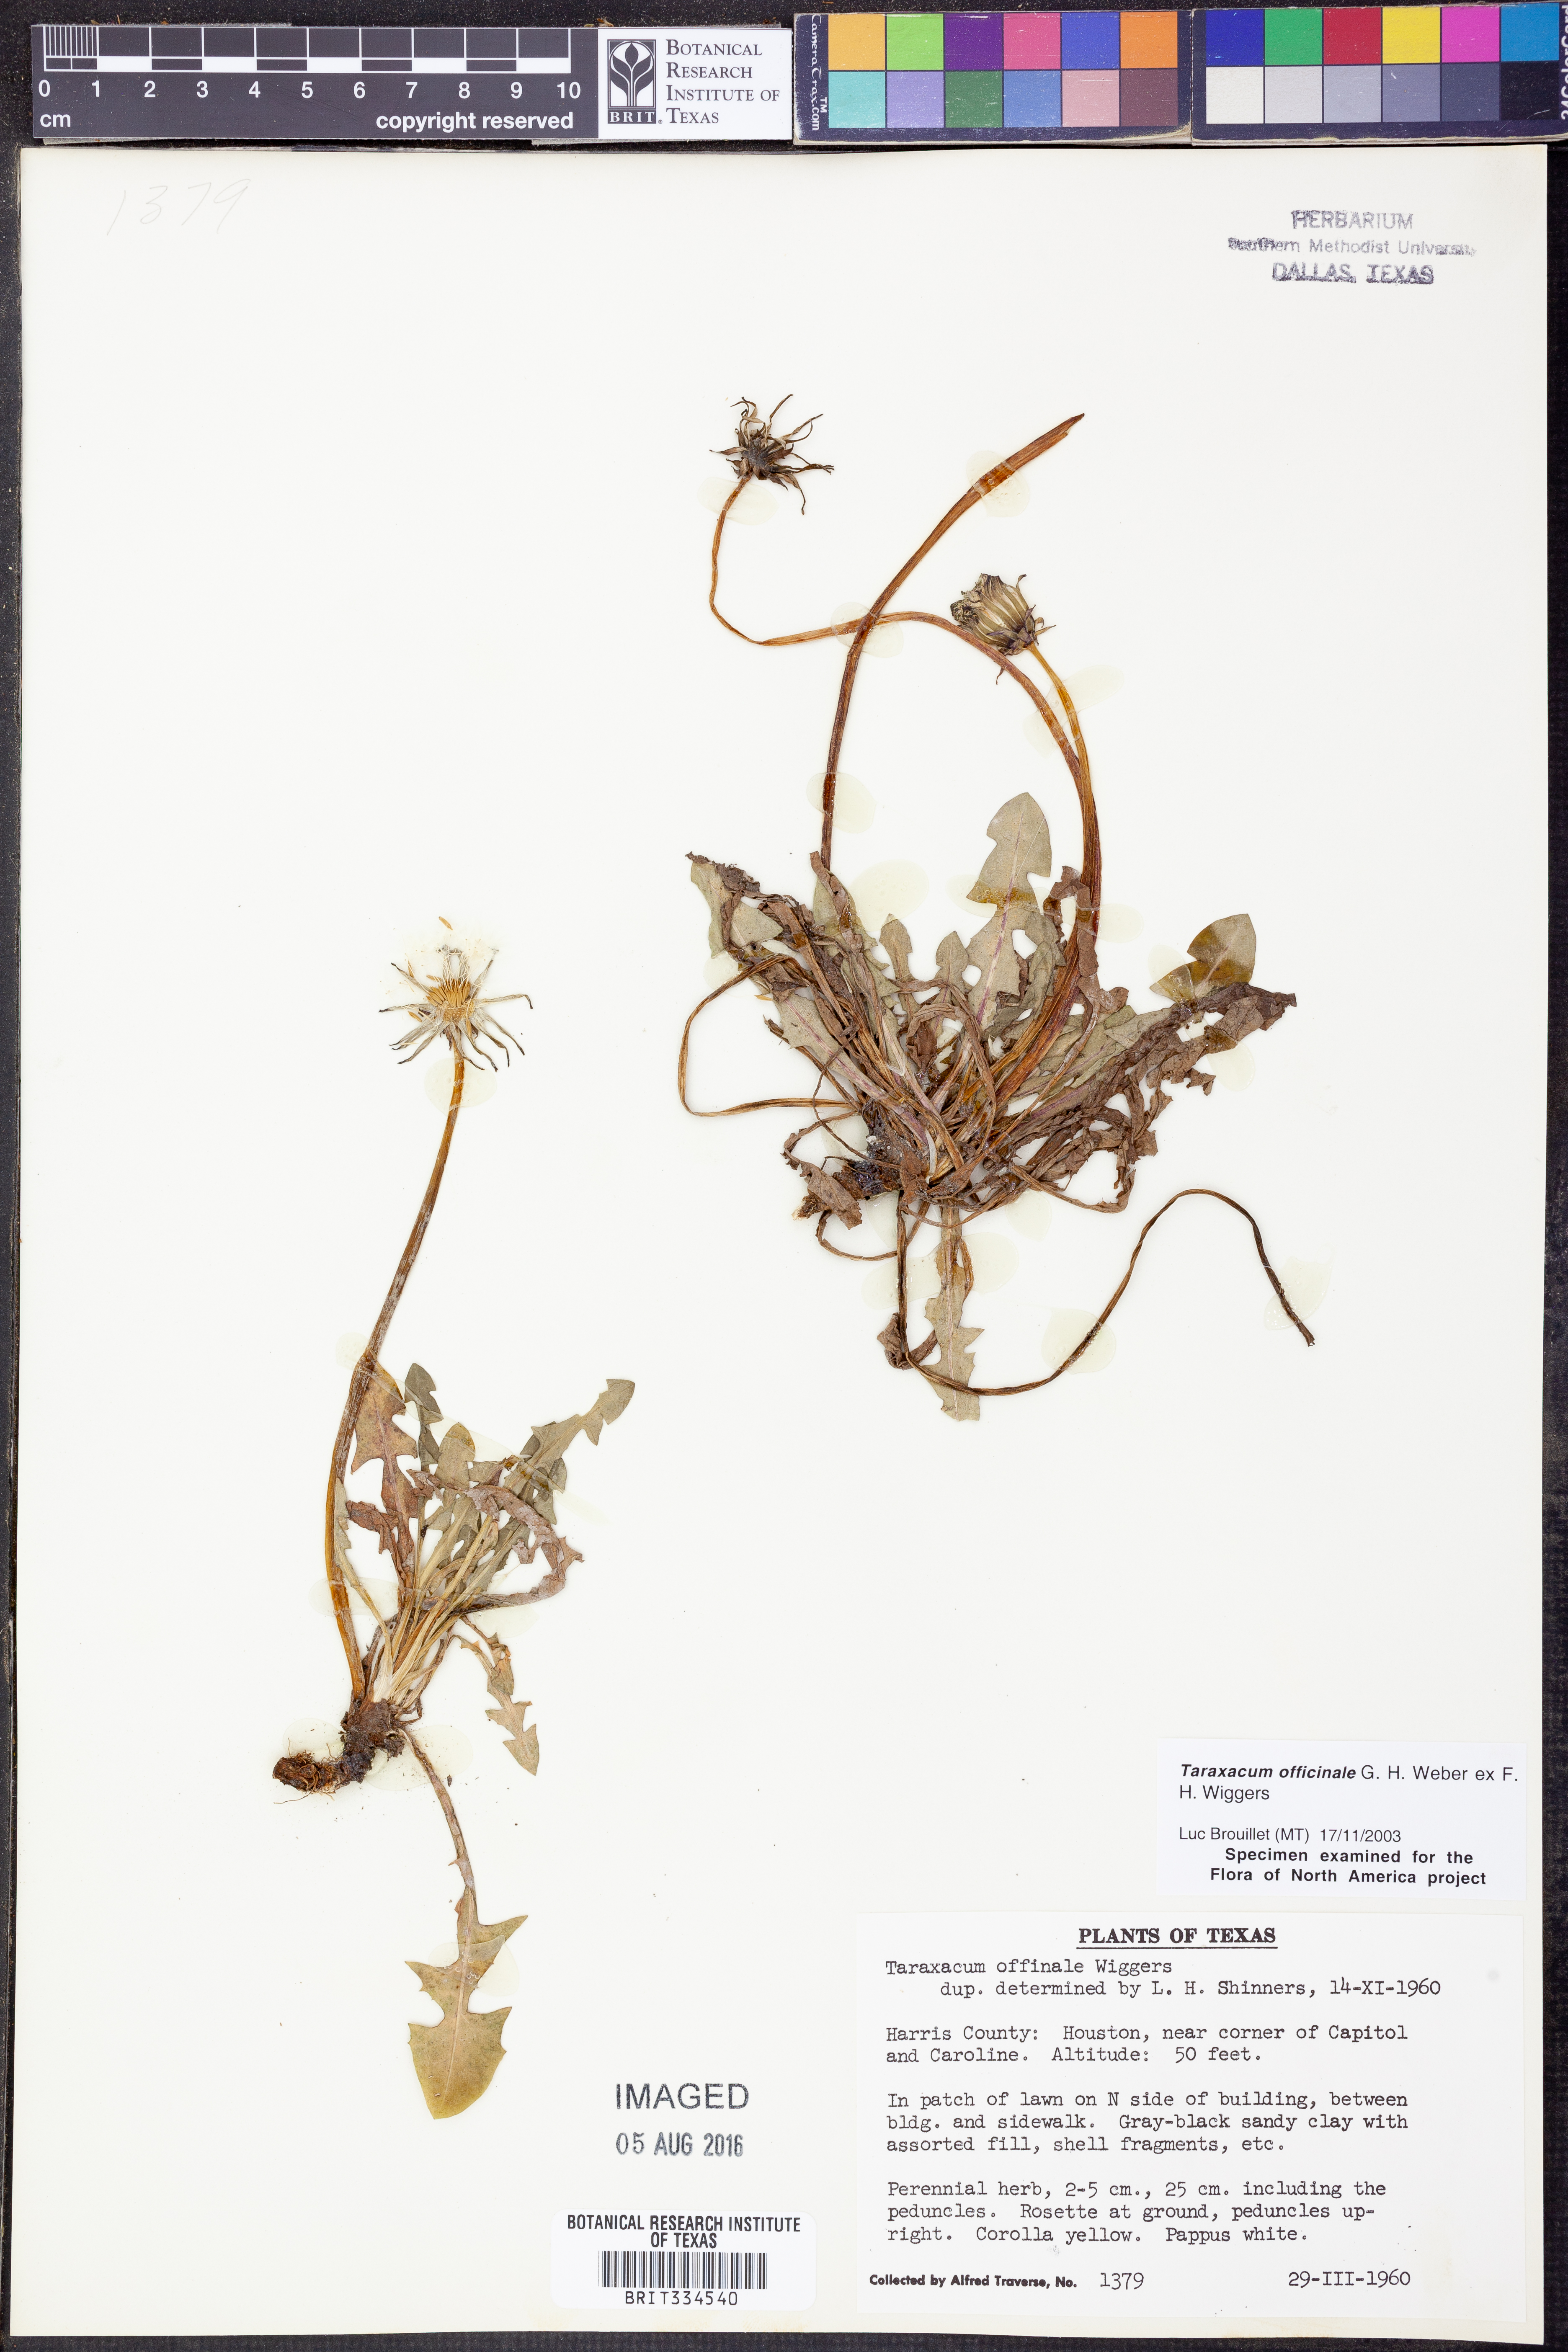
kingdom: Plantae
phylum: Tracheophyta
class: Magnoliopsida
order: Asterales
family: Asteraceae
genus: Taraxacum
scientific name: Taraxacum officinale
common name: Common dandelion
